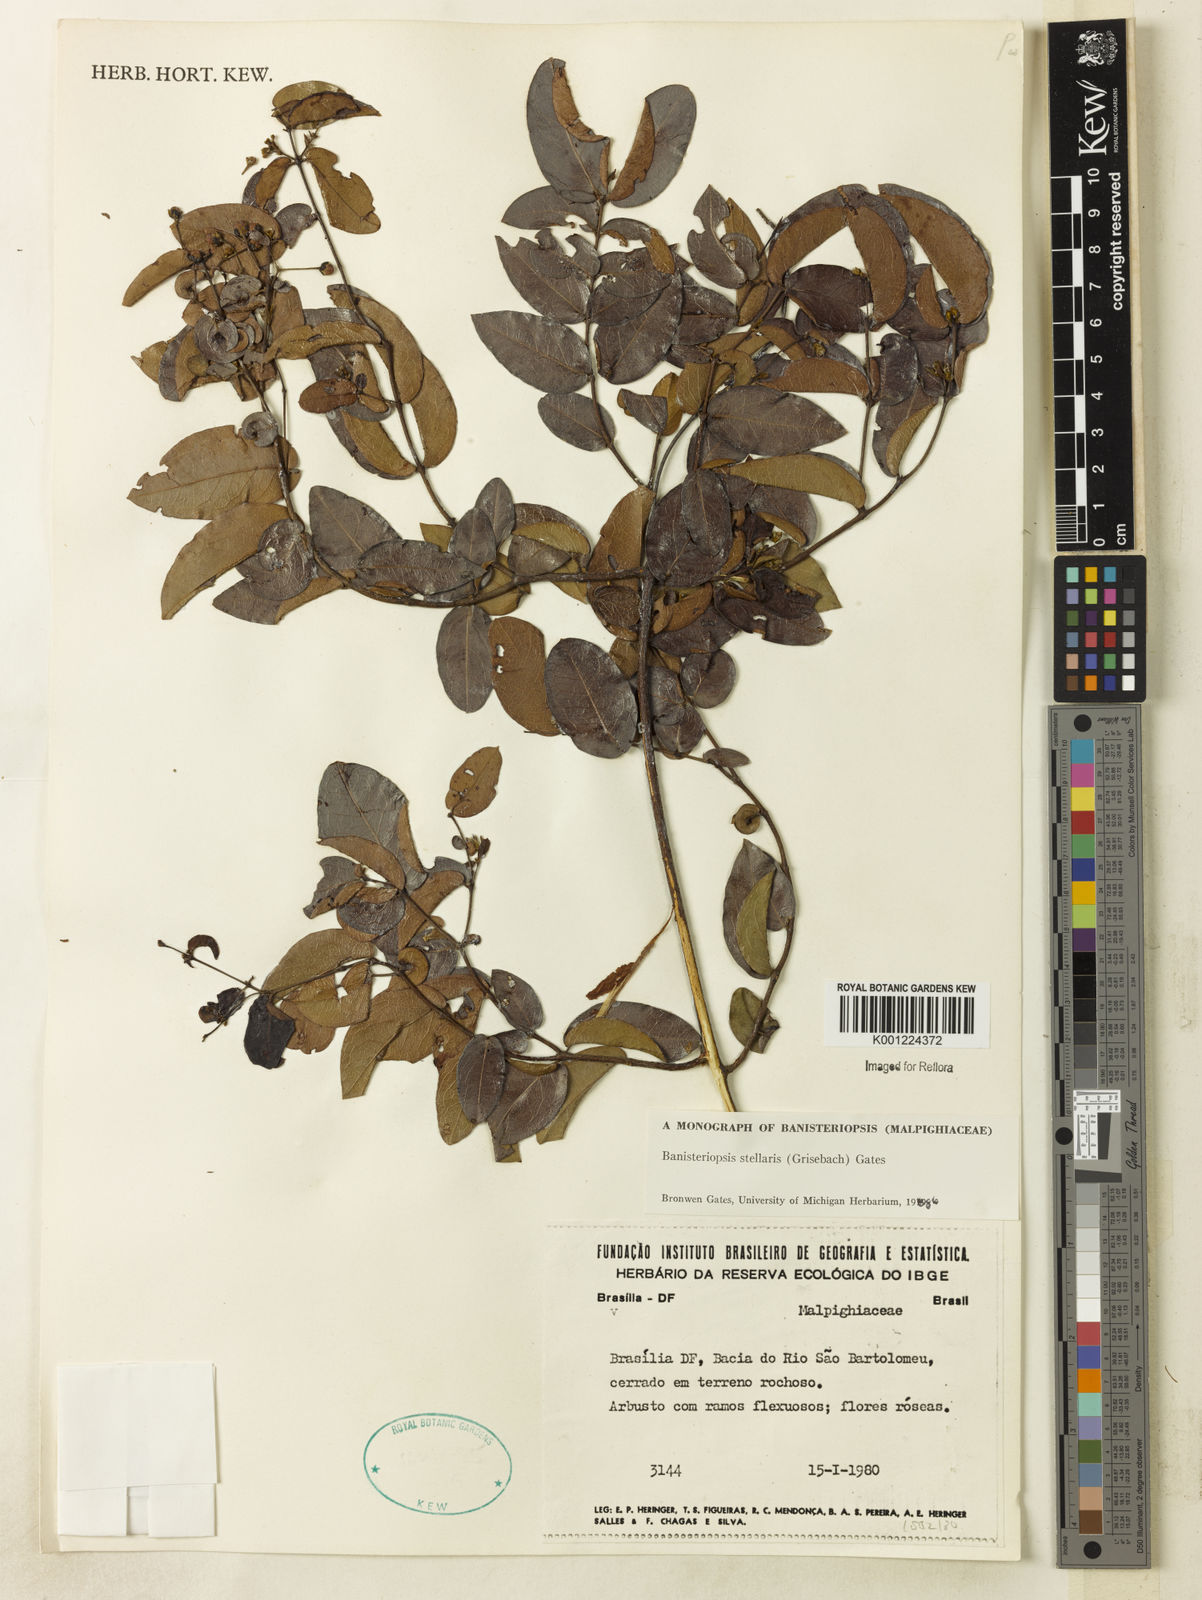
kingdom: Plantae
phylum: Tracheophyta
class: Magnoliopsida
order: Malpighiales
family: Malpighiaceae
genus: Banisteriopsis
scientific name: Banisteriopsis stellaris
